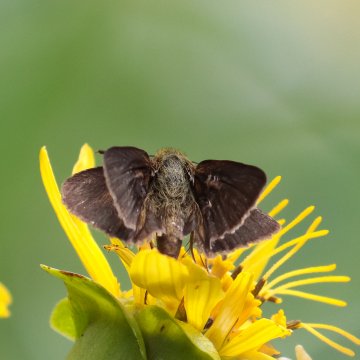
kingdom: Animalia
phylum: Arthropoda
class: Insecta
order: Lepidoptera
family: Hesperiidae
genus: Euphyes
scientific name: Euphyes vestris
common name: Dun Skipper
